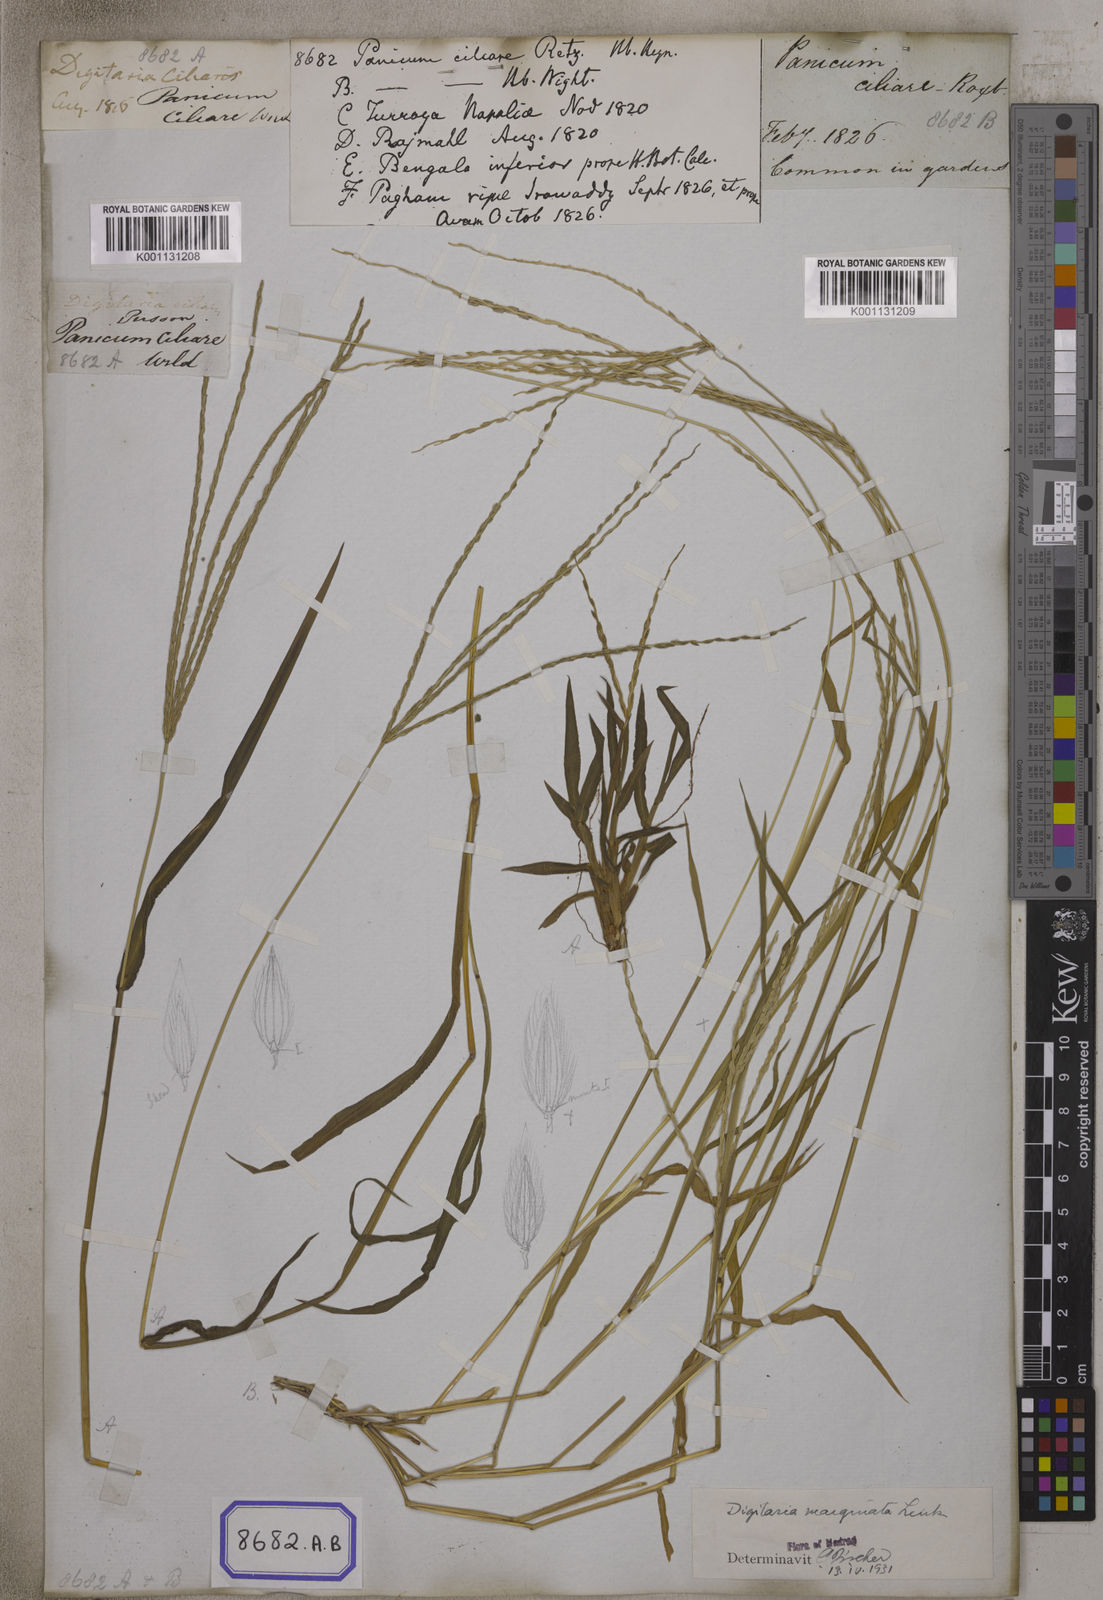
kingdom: Plantae
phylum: Tracheophyta
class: Liliopsida
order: Poales
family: Poaceae
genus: Digitaria
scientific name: Digitaria ciliaris
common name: Tropical finger-grass
